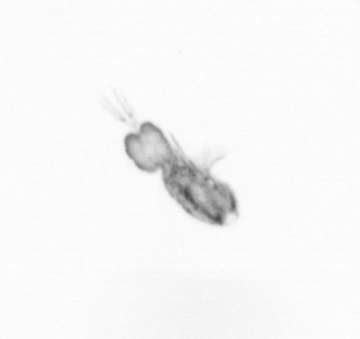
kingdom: Animalia
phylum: Arthropoda
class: Copepoda
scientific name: Copepoda
